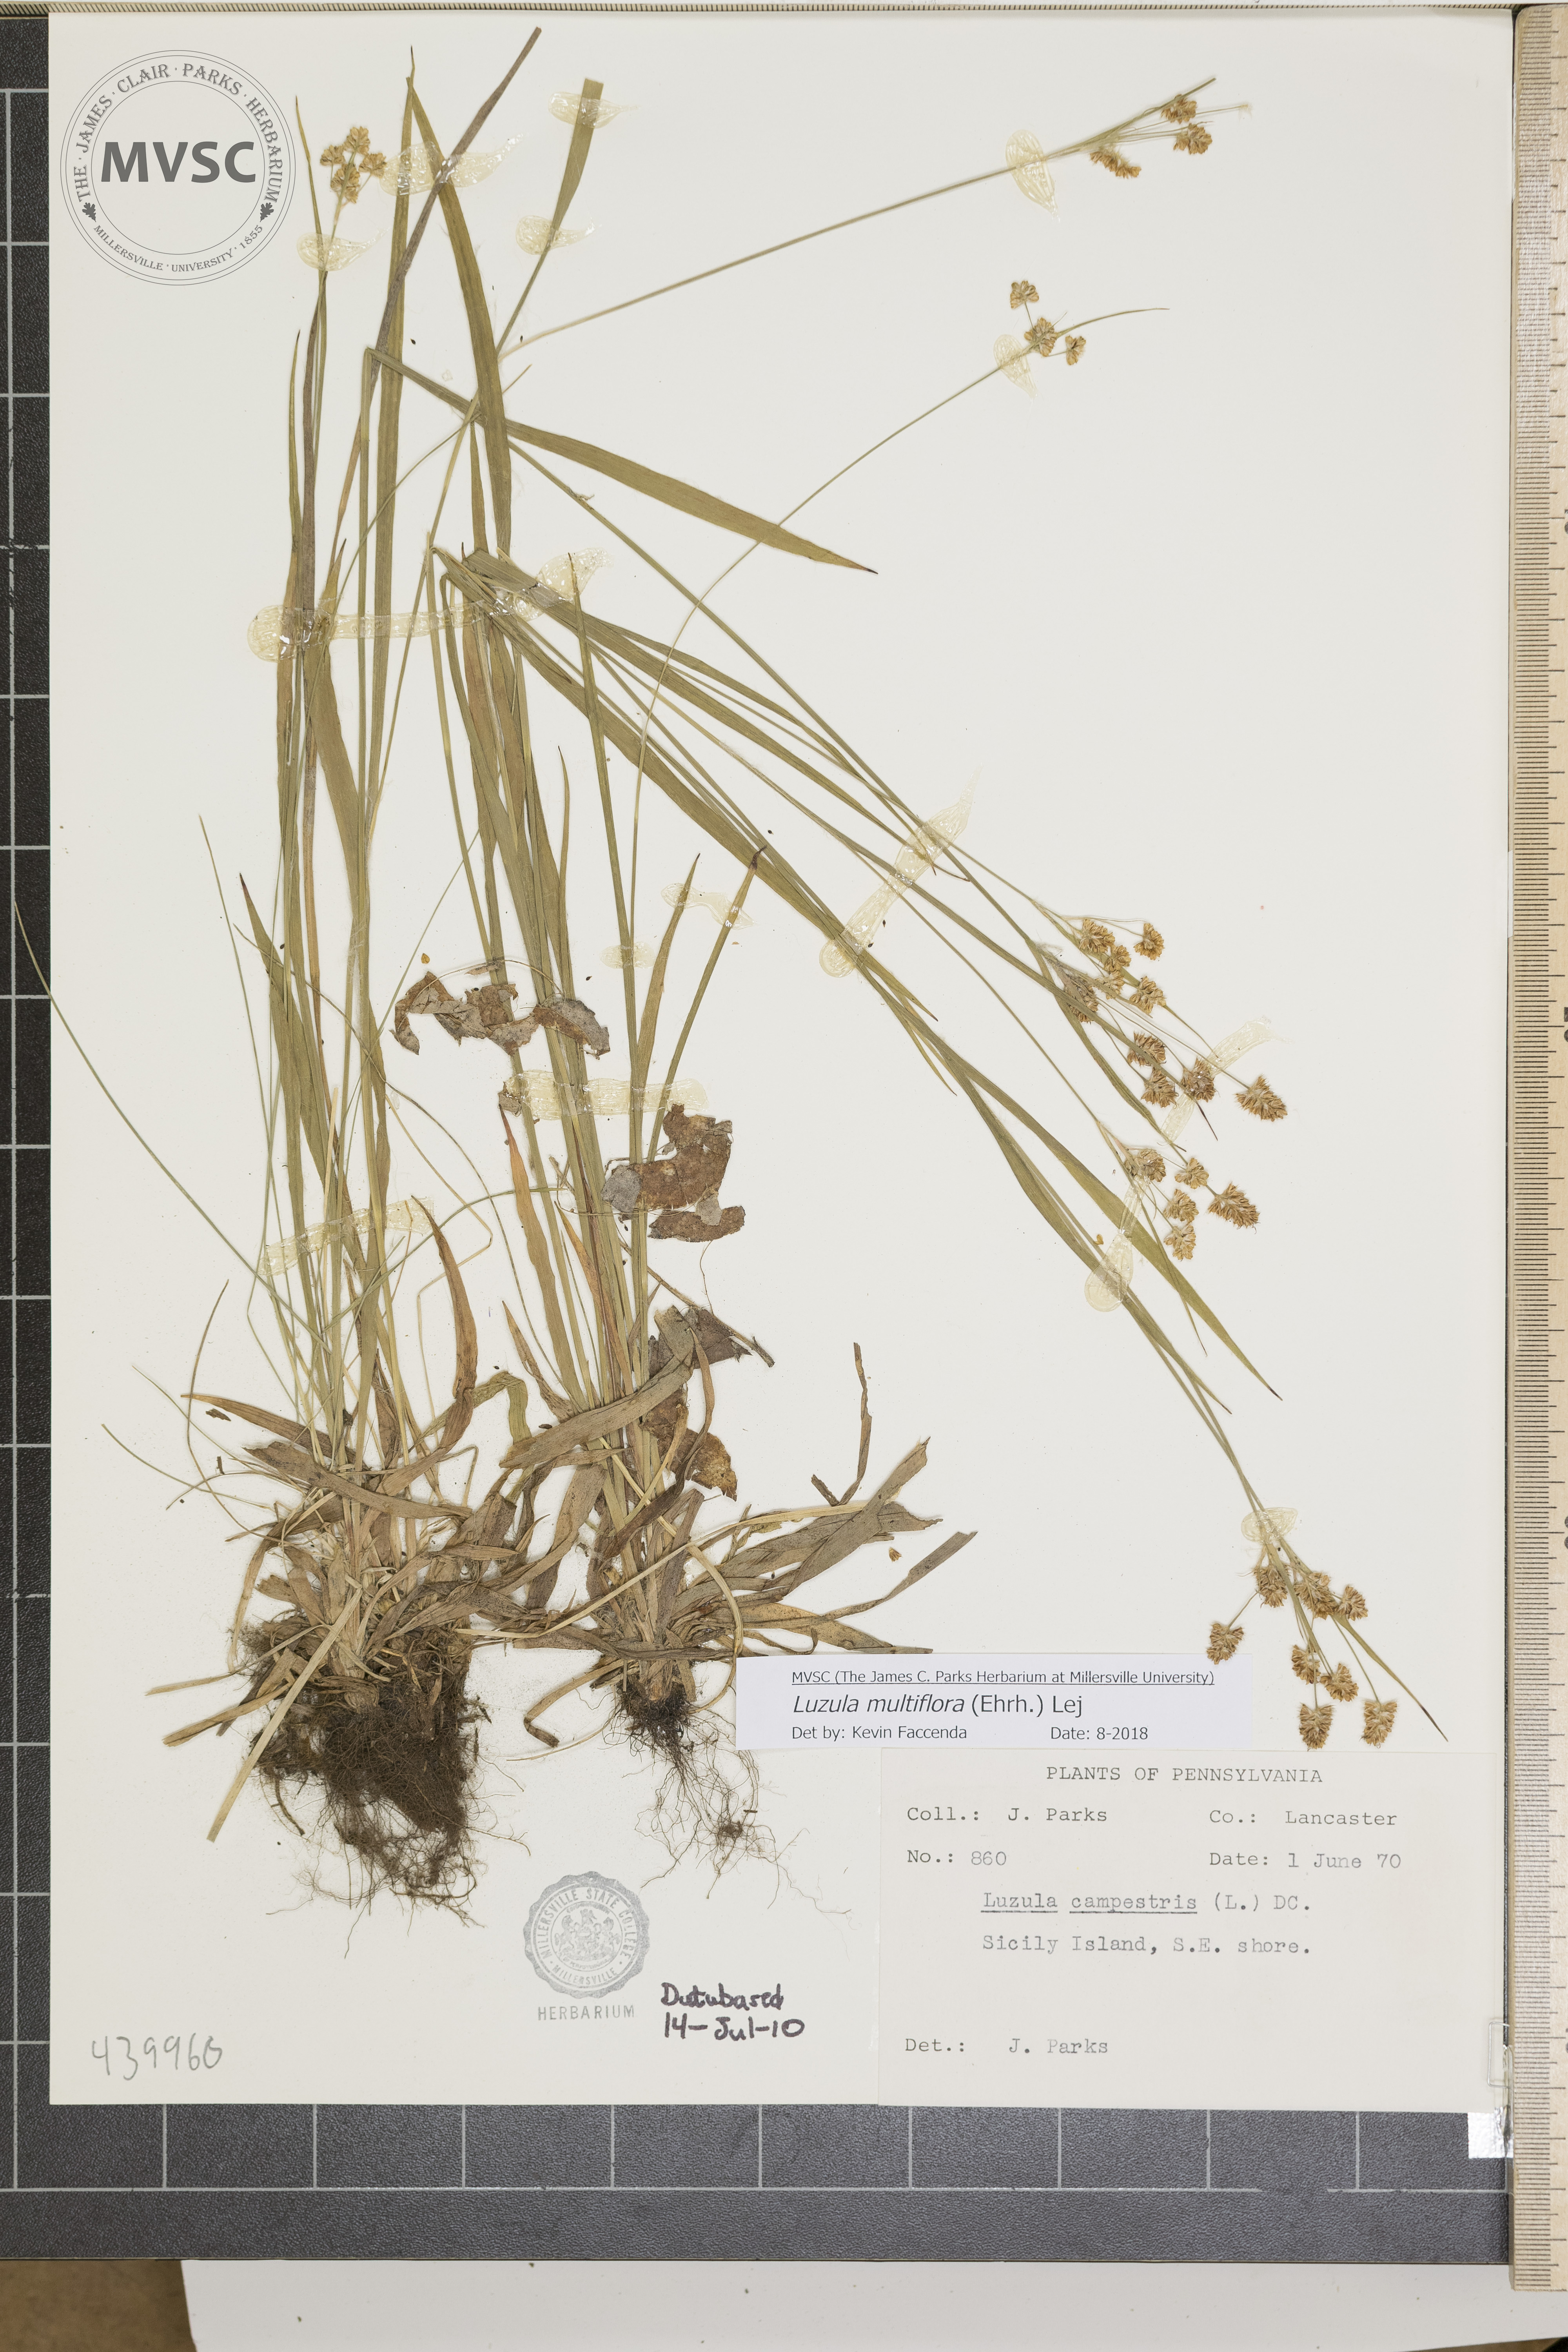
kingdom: Plantae
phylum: Tracheophyta
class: Liliopsida
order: Poales
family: Juncaceae
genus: Luzula
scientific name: Luzula multiflora
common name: Heath wood-rush
